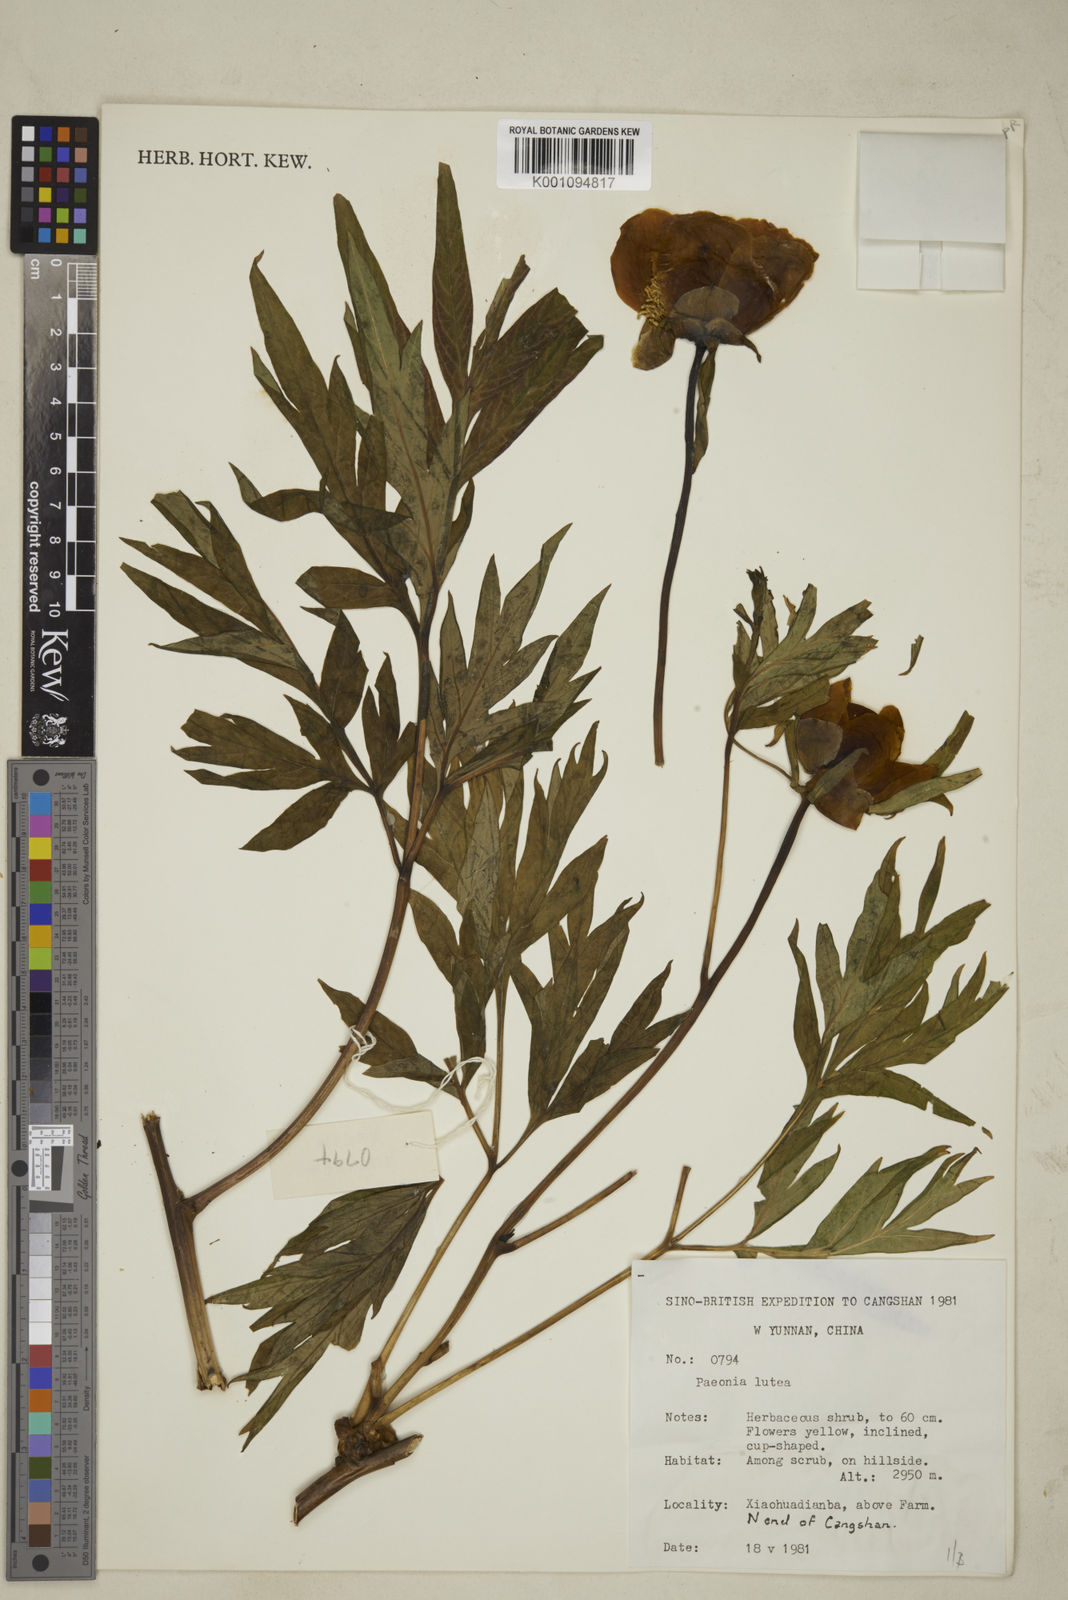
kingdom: Plantae
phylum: Tracheophyta
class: Magnoliopsida
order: Saxifragales
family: Paeoniaceae
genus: Paeonia
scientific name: Paeonia delavayi
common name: Dian mu dan
